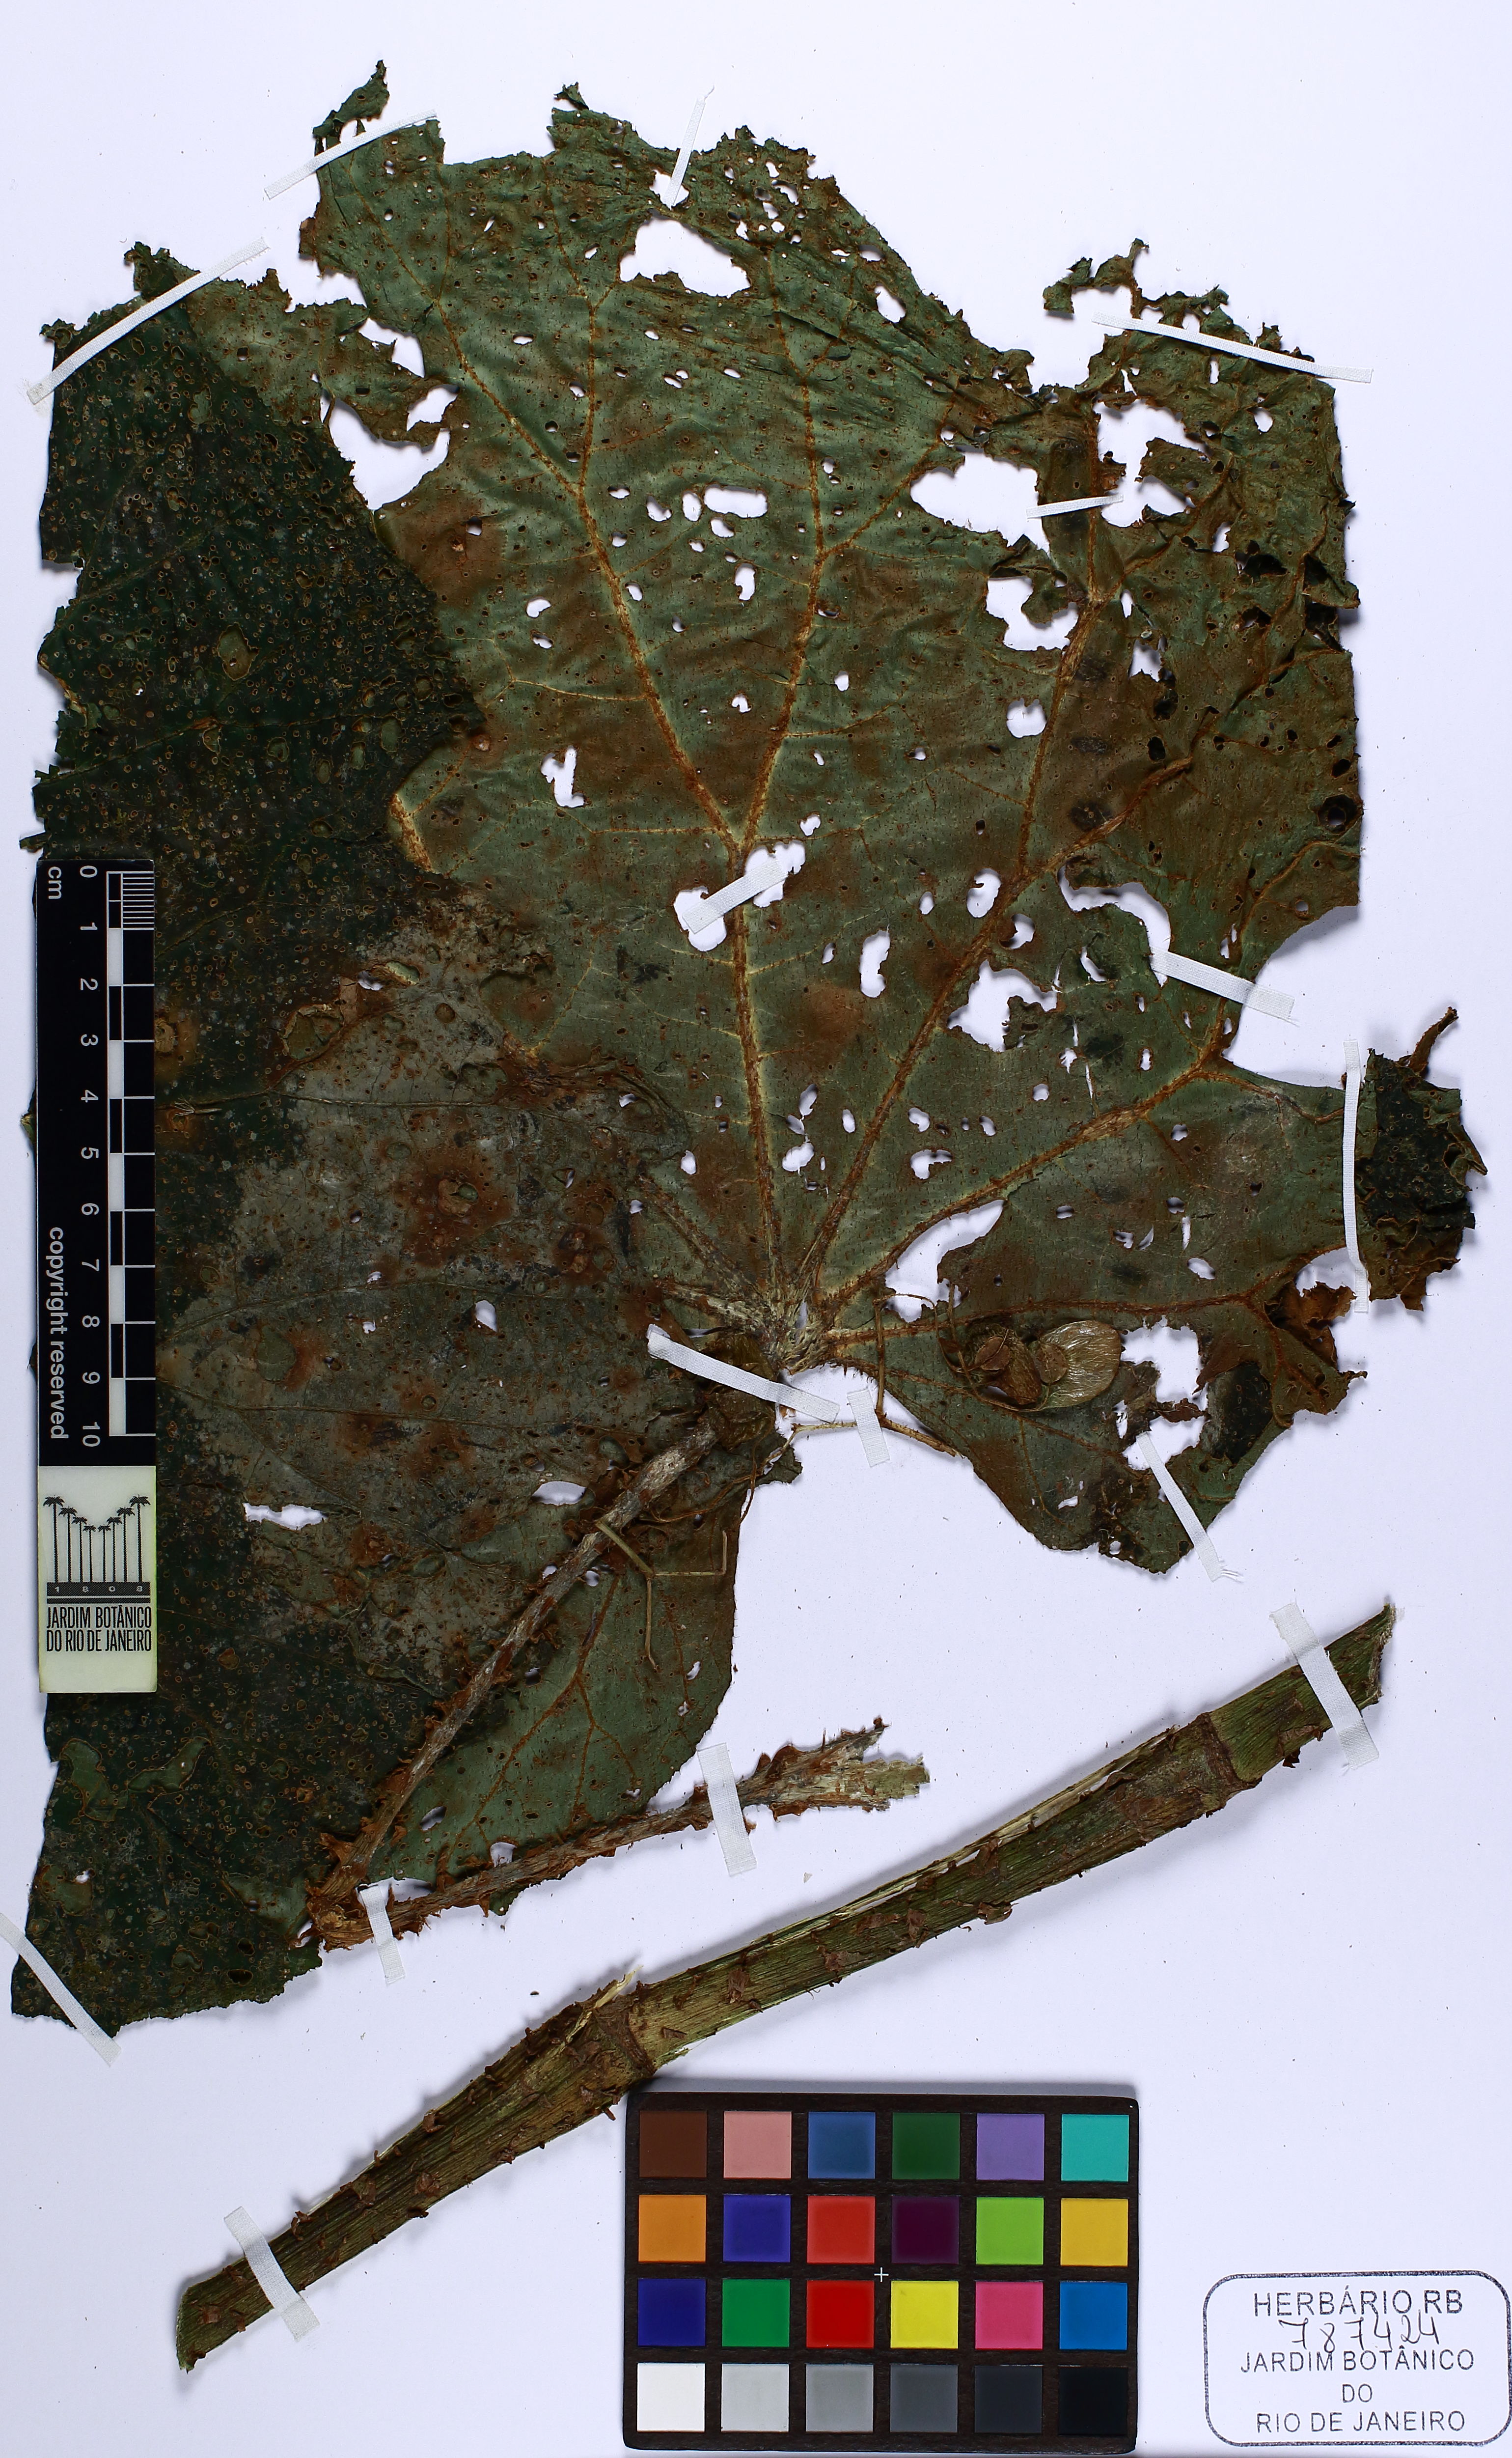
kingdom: Plantae
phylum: Tracheophyta
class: Magnoliopsida
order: Cucurbitales
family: Begoniaceae
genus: Begonia
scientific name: Begonia capanemae
